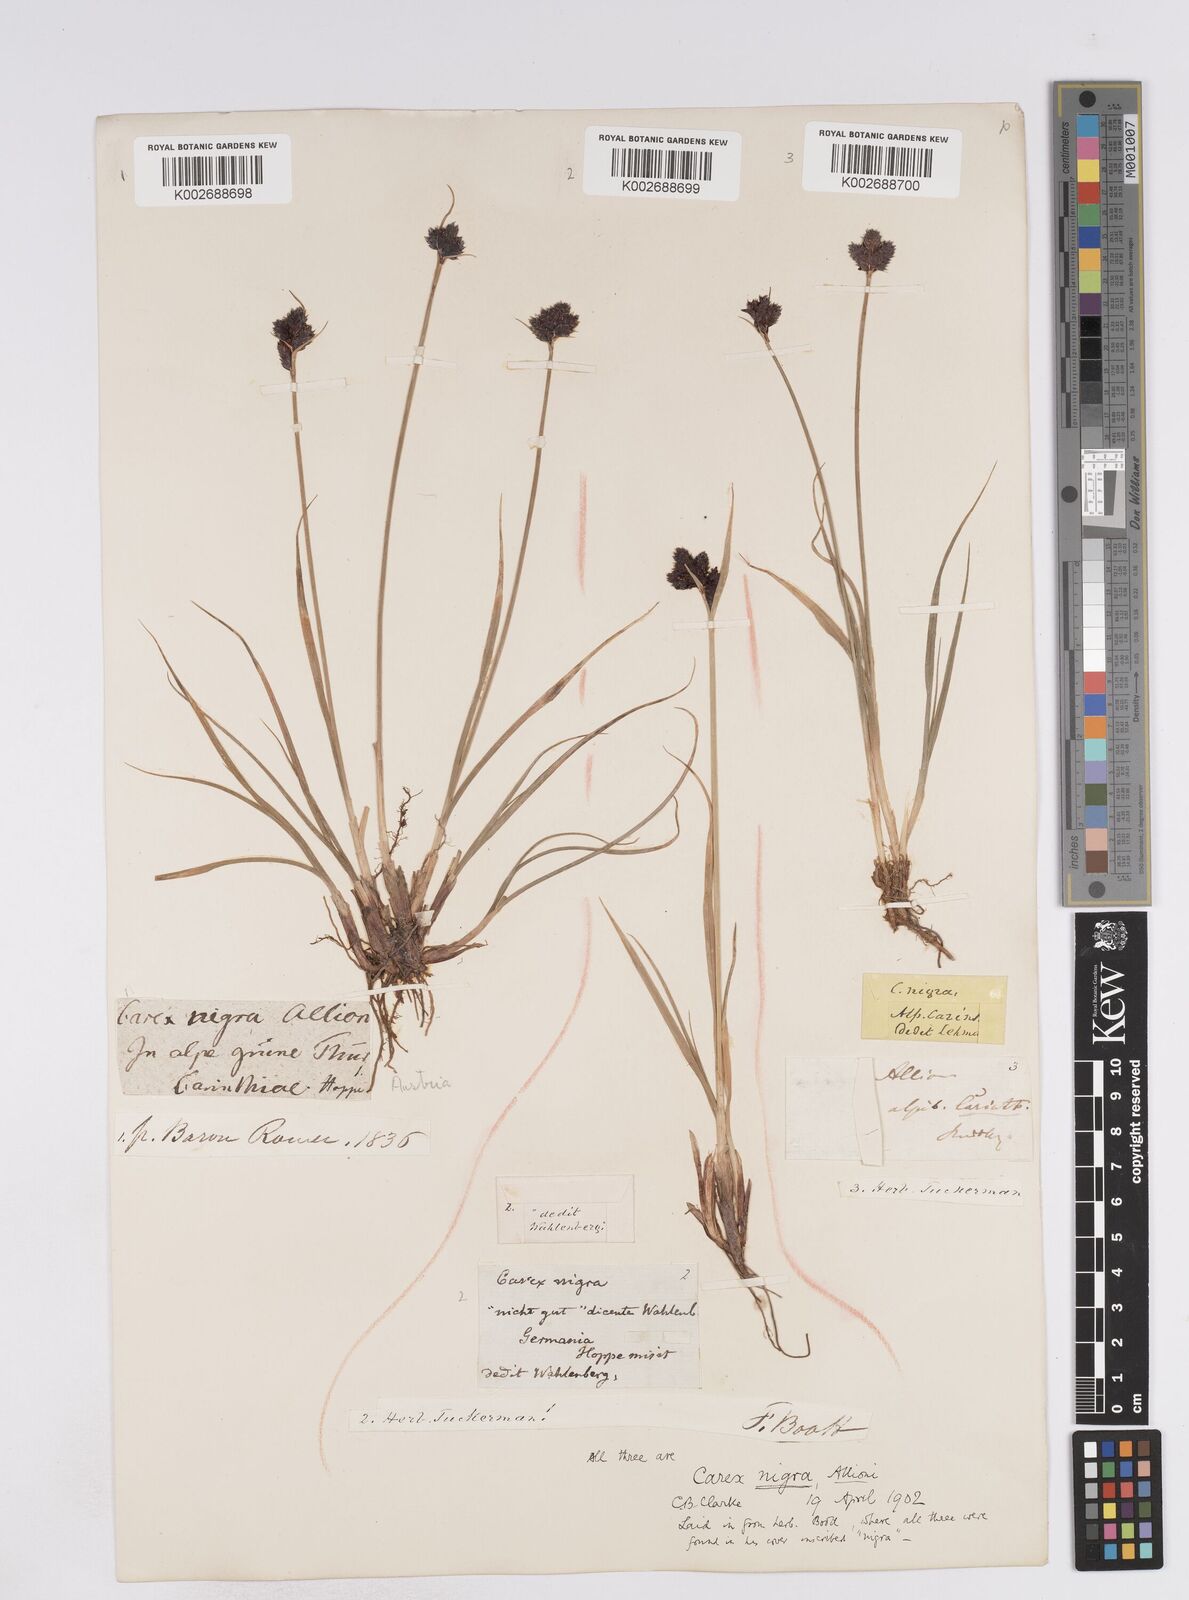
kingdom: Plantae
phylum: Tracheophyta
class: Liliopsida
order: Poales
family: Cyperaceae
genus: Carex
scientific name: Carex parviflora
